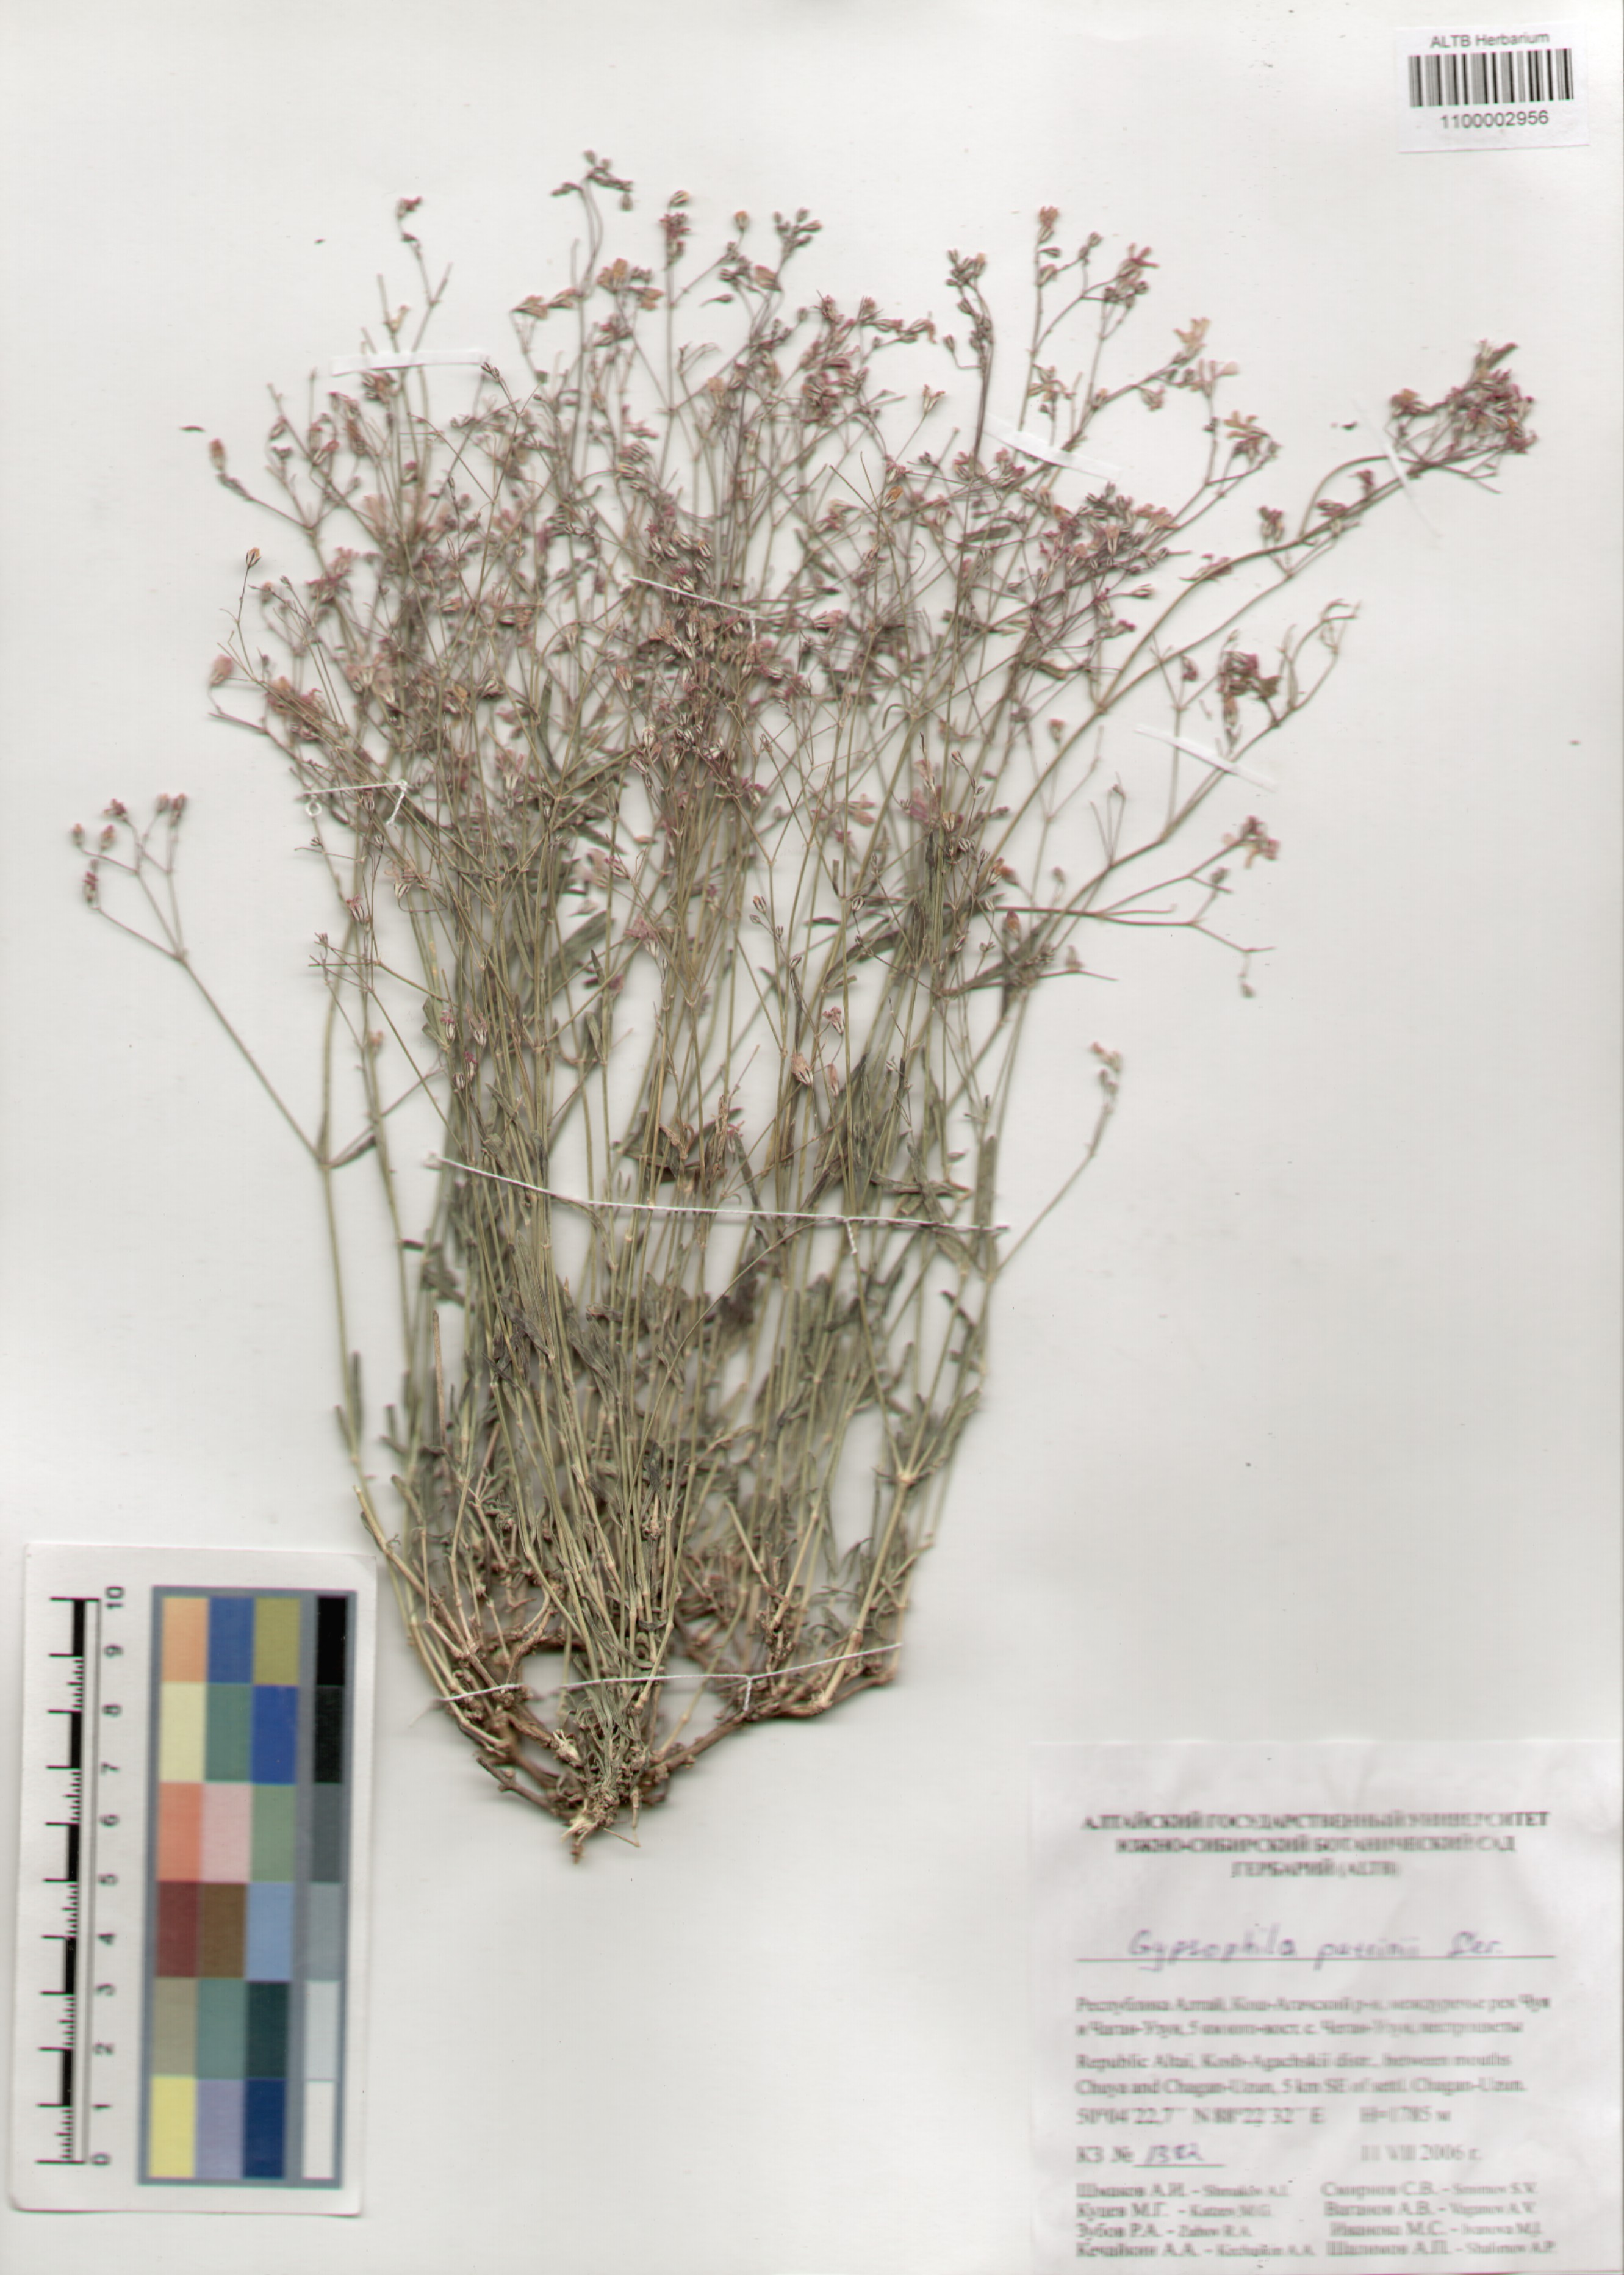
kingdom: Plantae
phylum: Tracheophyta
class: Magnoliopsida
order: Caryophyllales
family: Caryophyllaceae
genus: Gypsophila
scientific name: Gypsophila patrinii
